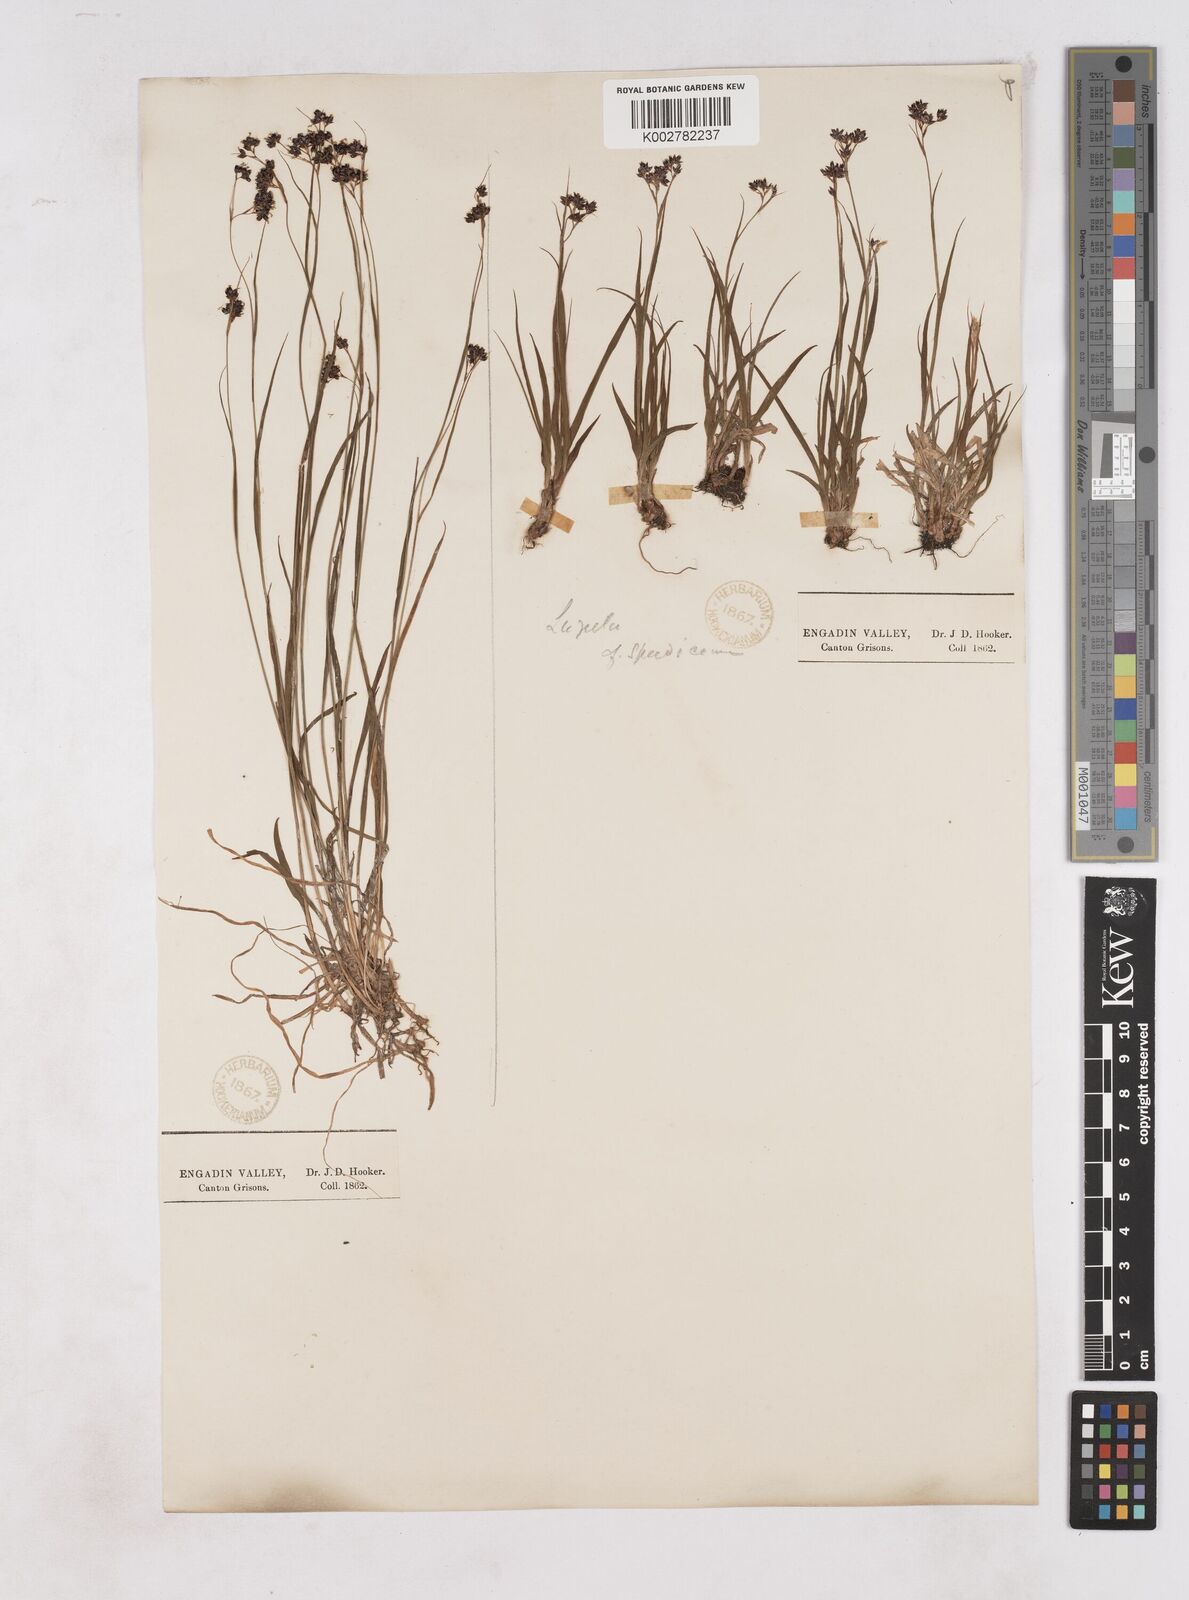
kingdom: Plantae
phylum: Tracheophyta
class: Liliopsida
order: Poales
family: Juncaceae
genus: Luzula
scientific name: Luzula alpinopilosa
